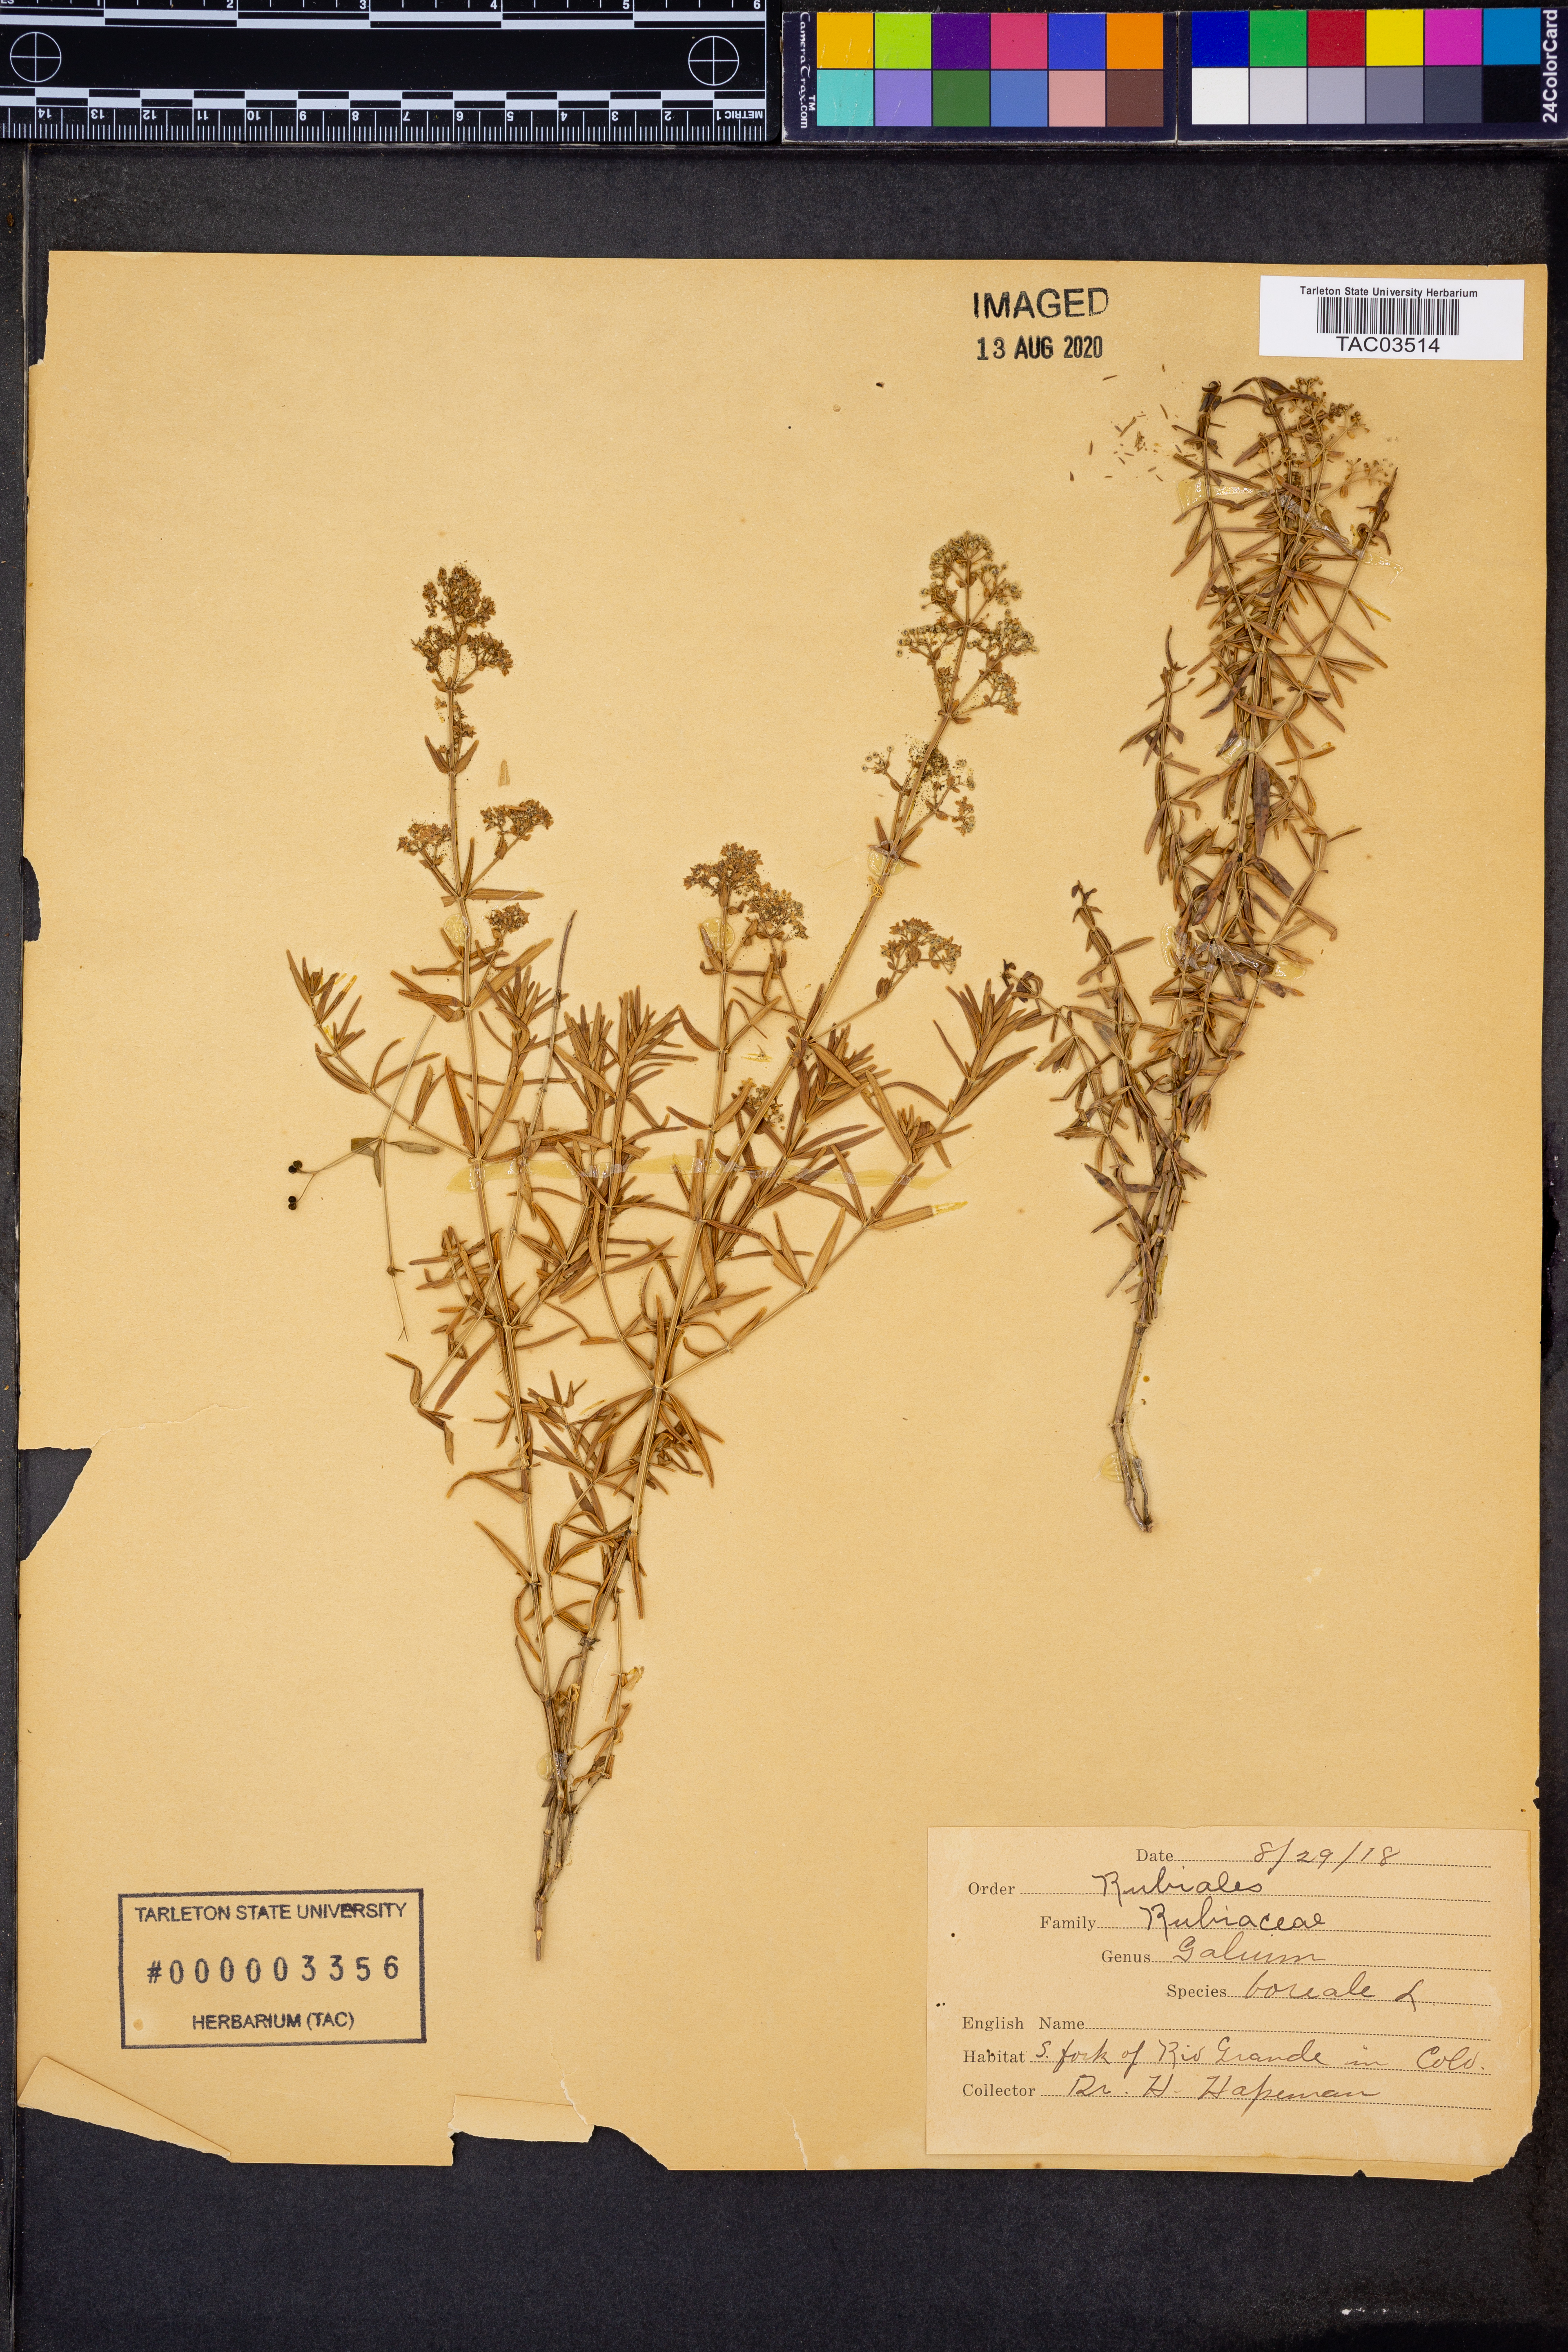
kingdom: Plantae
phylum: Tracheophyta
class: Magnoliopsida
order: Gentianales
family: Rubiaceae
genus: Galium
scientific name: Galium boreale
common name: Northern bedstraw
